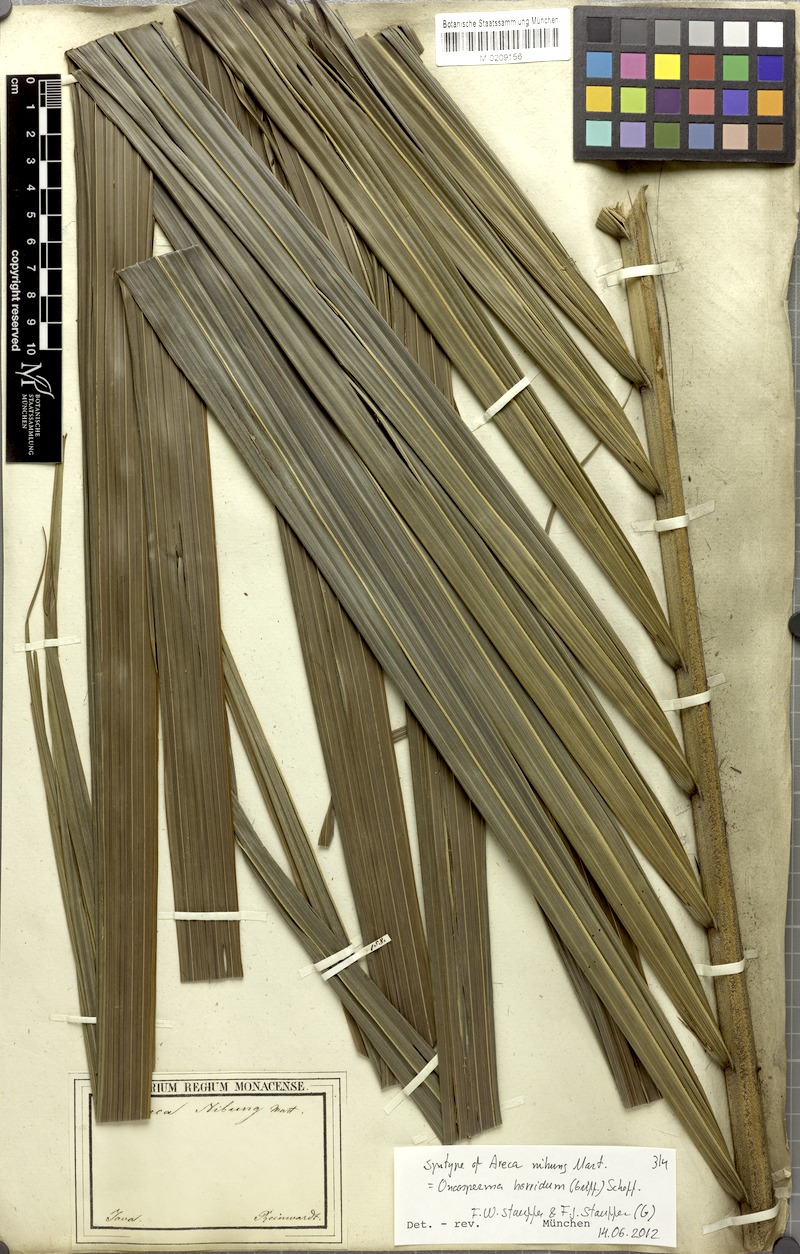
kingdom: Plantae
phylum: Tracheophyta
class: Liliopsida
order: Arecales
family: Arecaceae
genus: Oncosperma
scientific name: Oncosperma horridum
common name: Thorny palm
